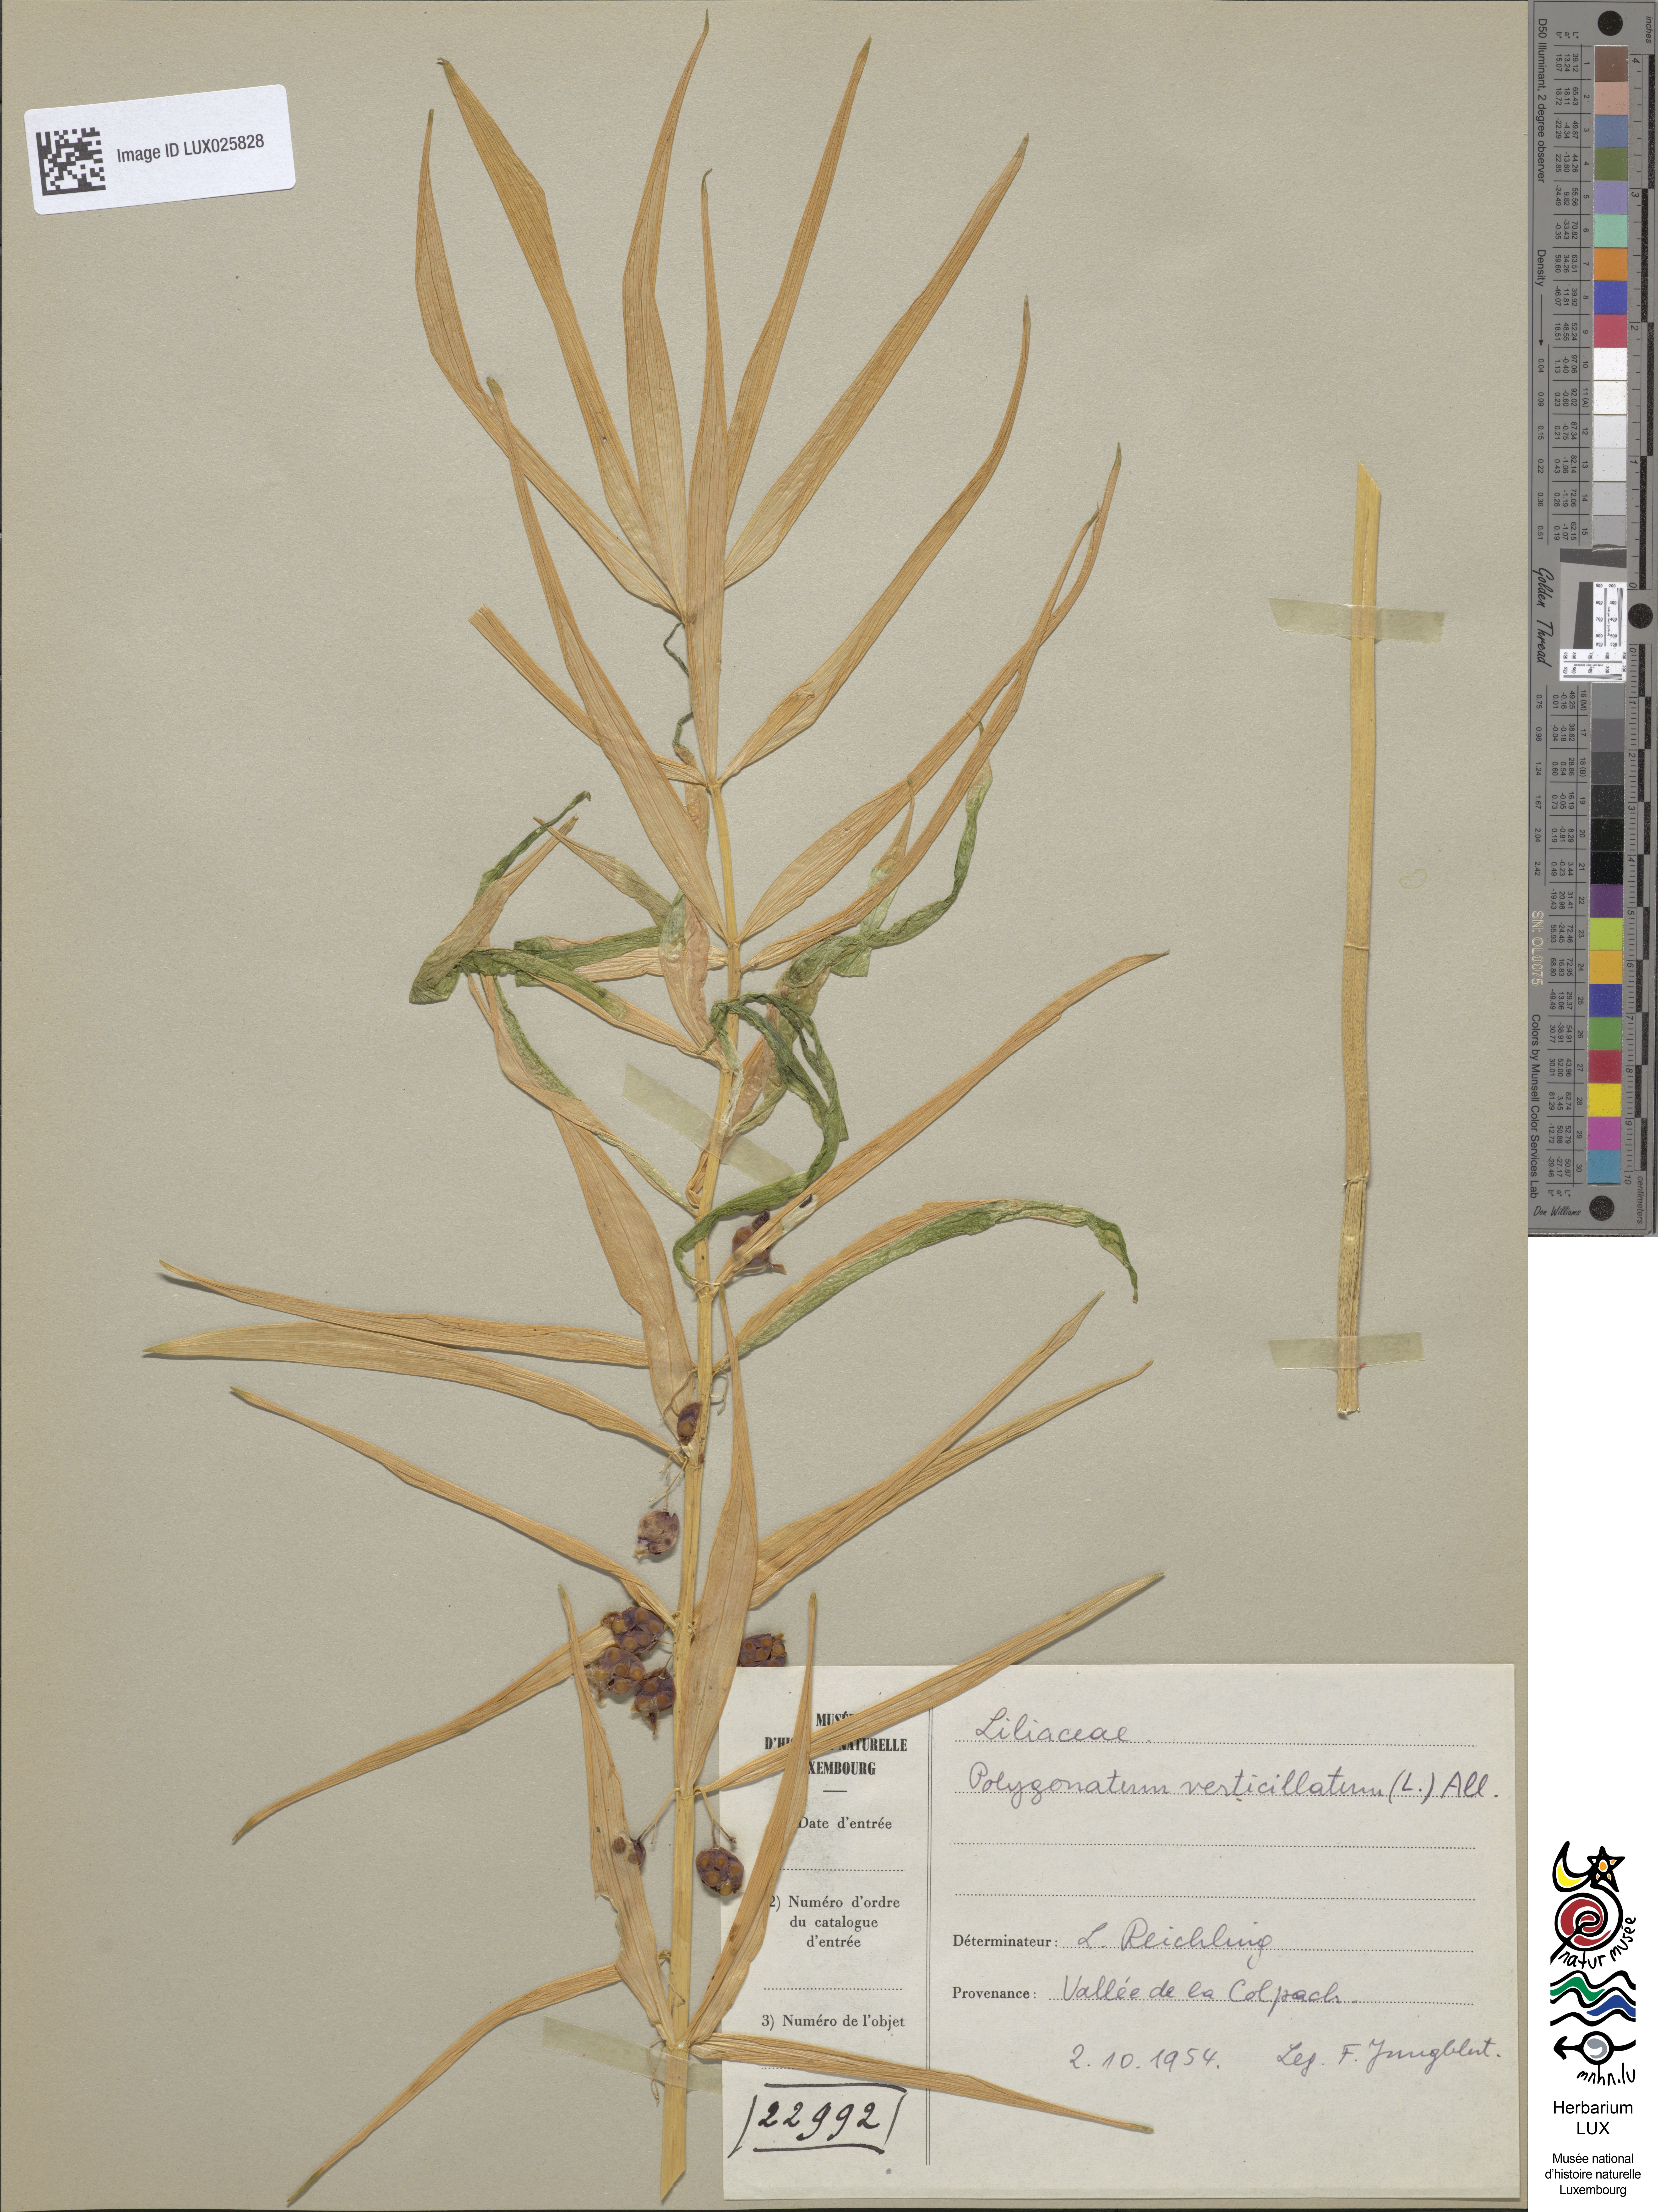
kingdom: Plantae
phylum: Tracheophyta
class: Liliopsida
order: Asparagales
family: Asparagaceae
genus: Polygonatum
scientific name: Polygonatum verticillatum
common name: Whorled solomon's-seal
